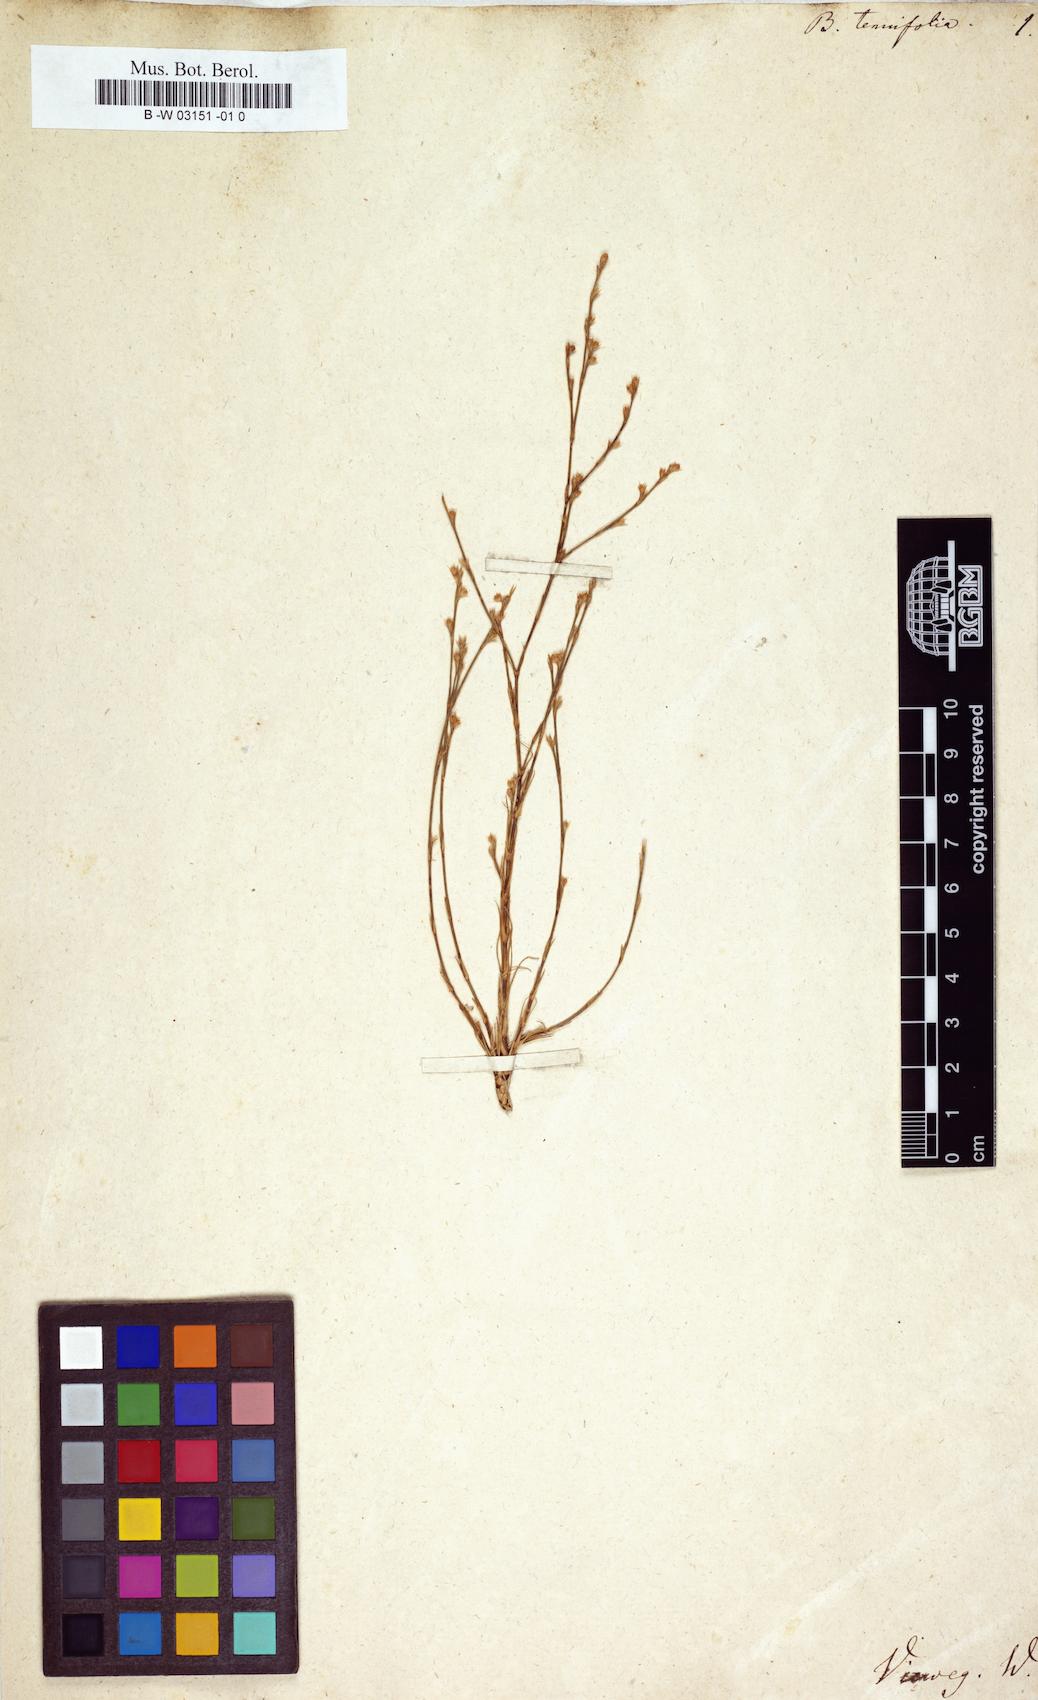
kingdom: Plantae
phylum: Tracheophyta
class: Magnoliopsida
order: Caryophyllales
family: Caryophyllaceae
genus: Bufonia
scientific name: Bufonia tenuifolia
